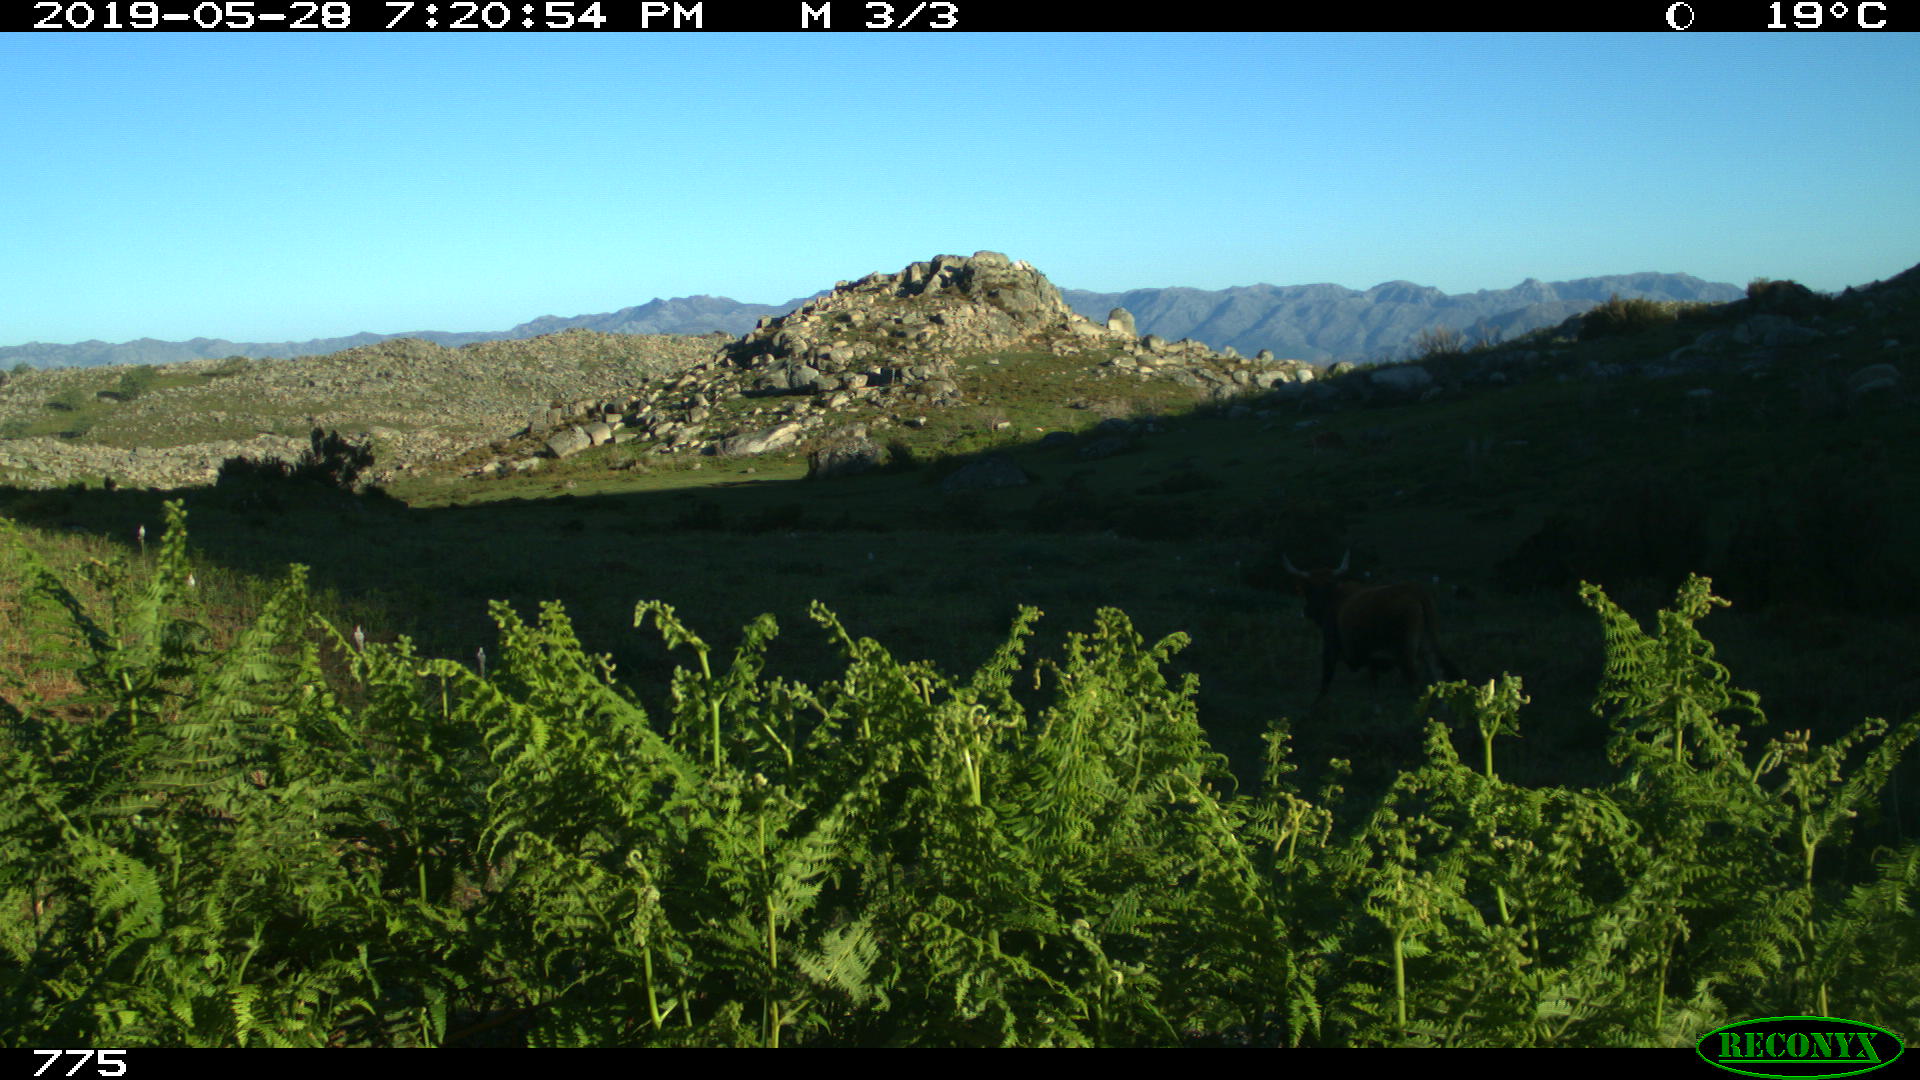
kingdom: Animalia
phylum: Chordata
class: Mammalia
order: Artiodactyla
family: Bovidae
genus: Bos
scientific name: Bos taurus
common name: Domesticated cattle
